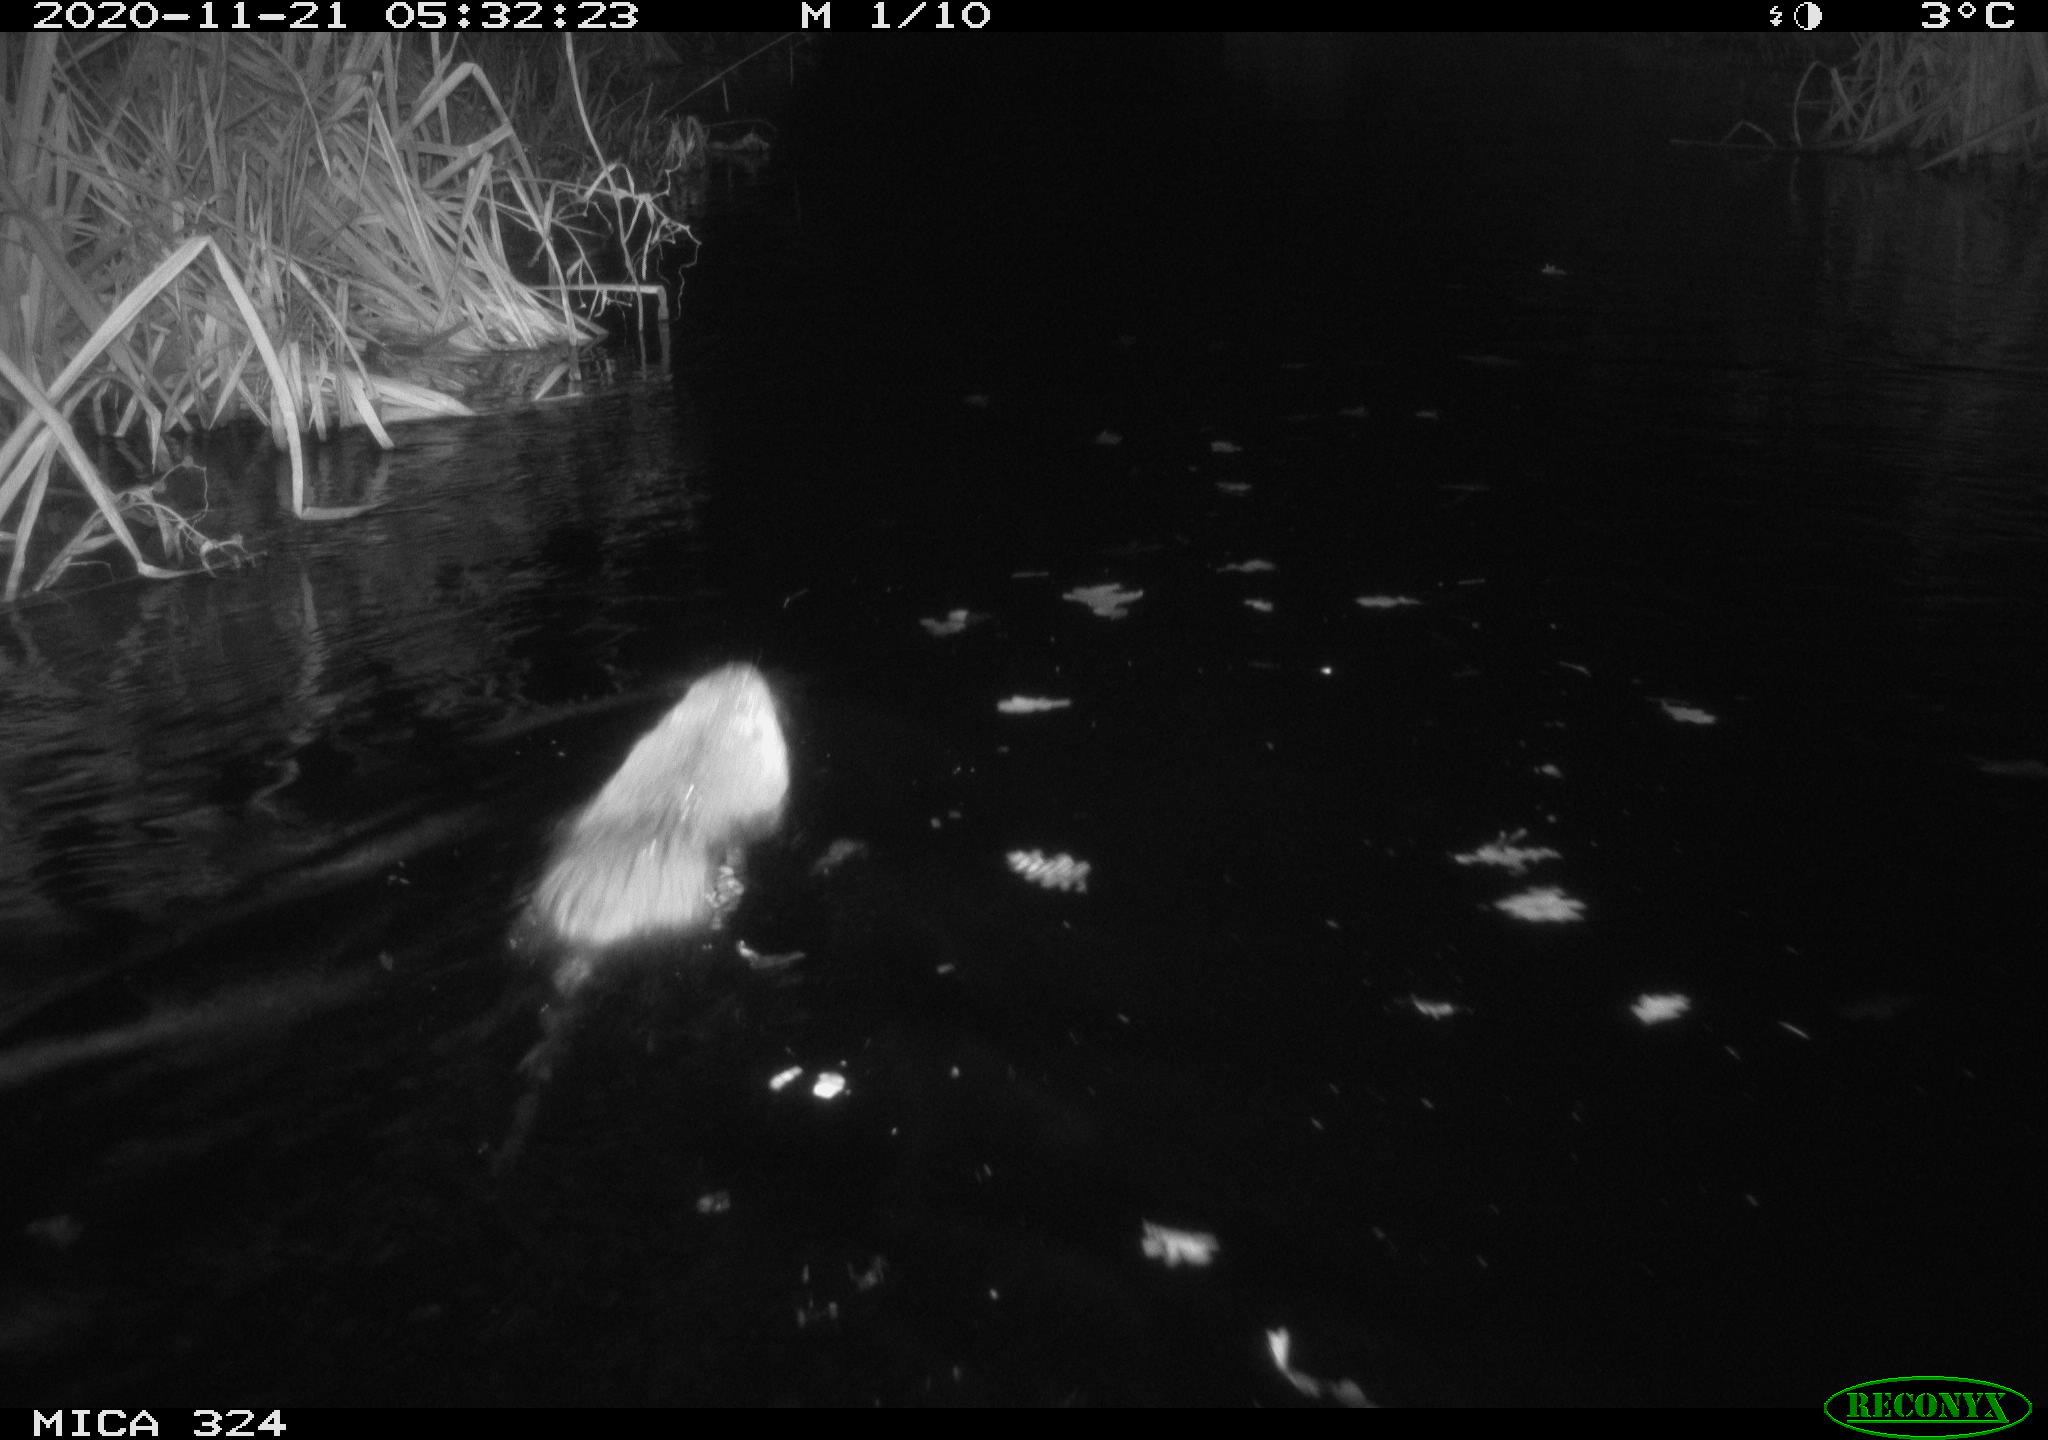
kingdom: Animalia
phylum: Chordata
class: Mammalia
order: Rodentia
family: Myocastoridae
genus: Myocastor
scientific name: Myocastor coypus
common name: Coypu
